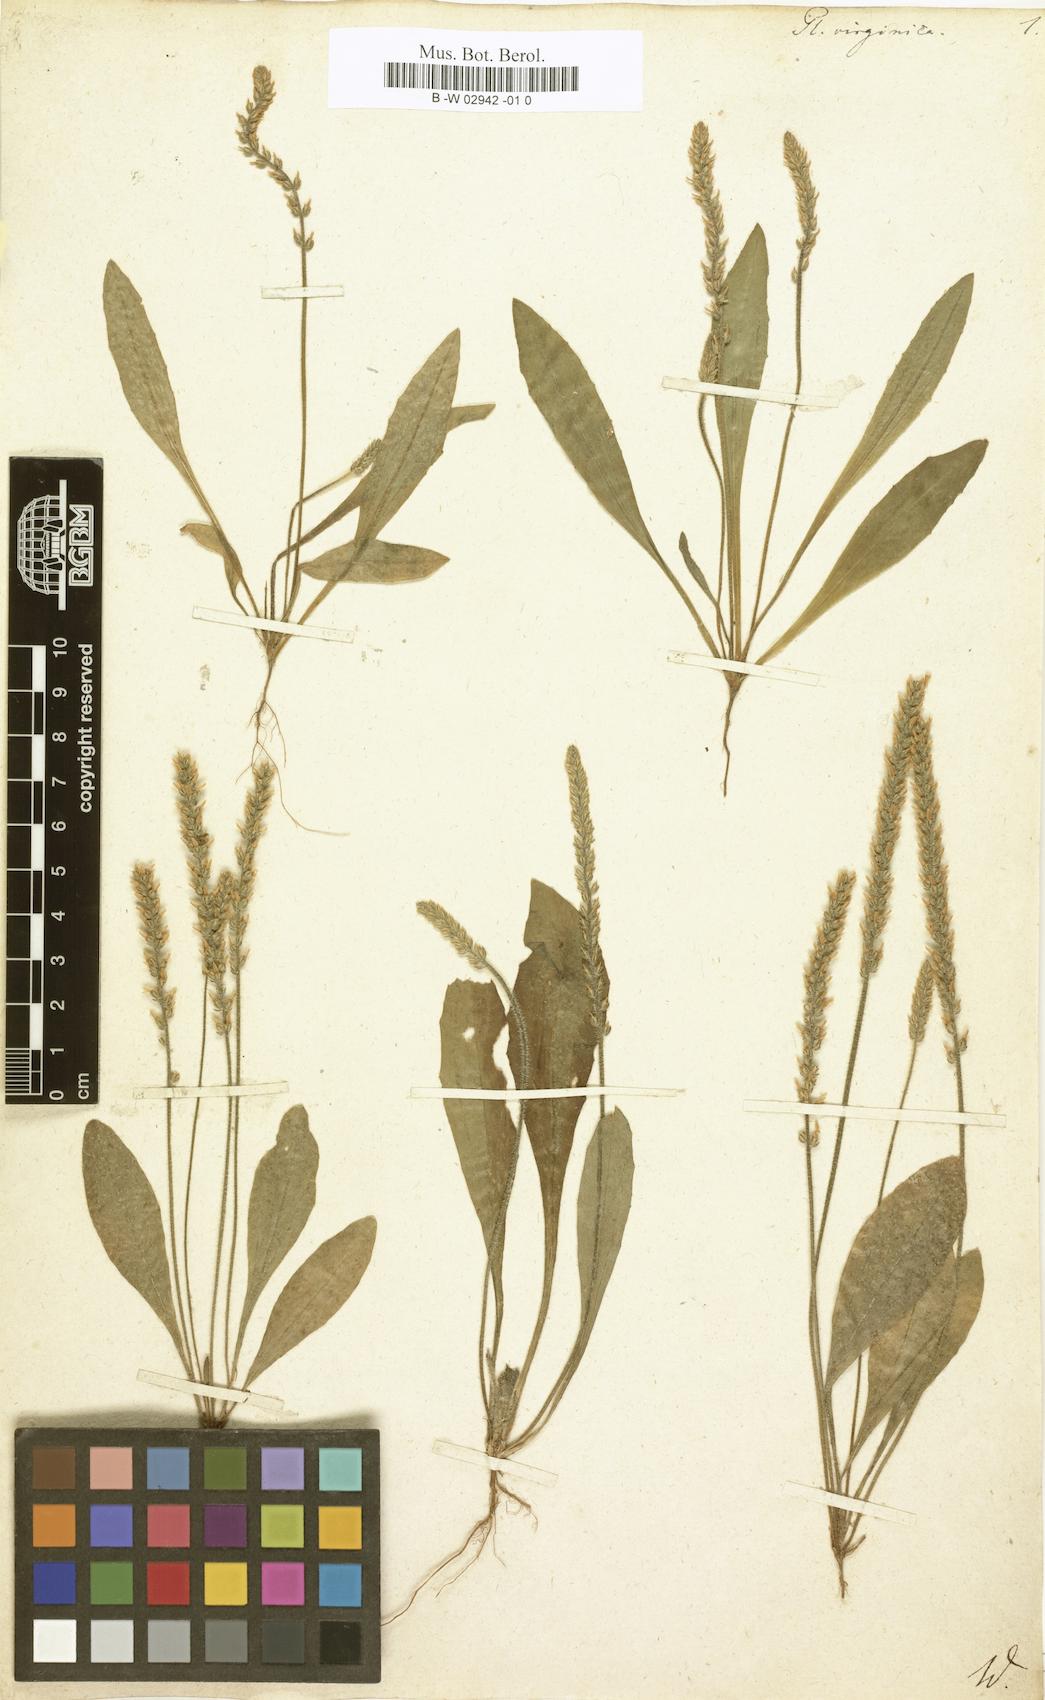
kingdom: Plantae
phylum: Tracheophyta
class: Magnoliopsida
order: Lamiales
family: Plantaginaceae
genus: Plantago
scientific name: Plantago virginica
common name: Hoary plantain
